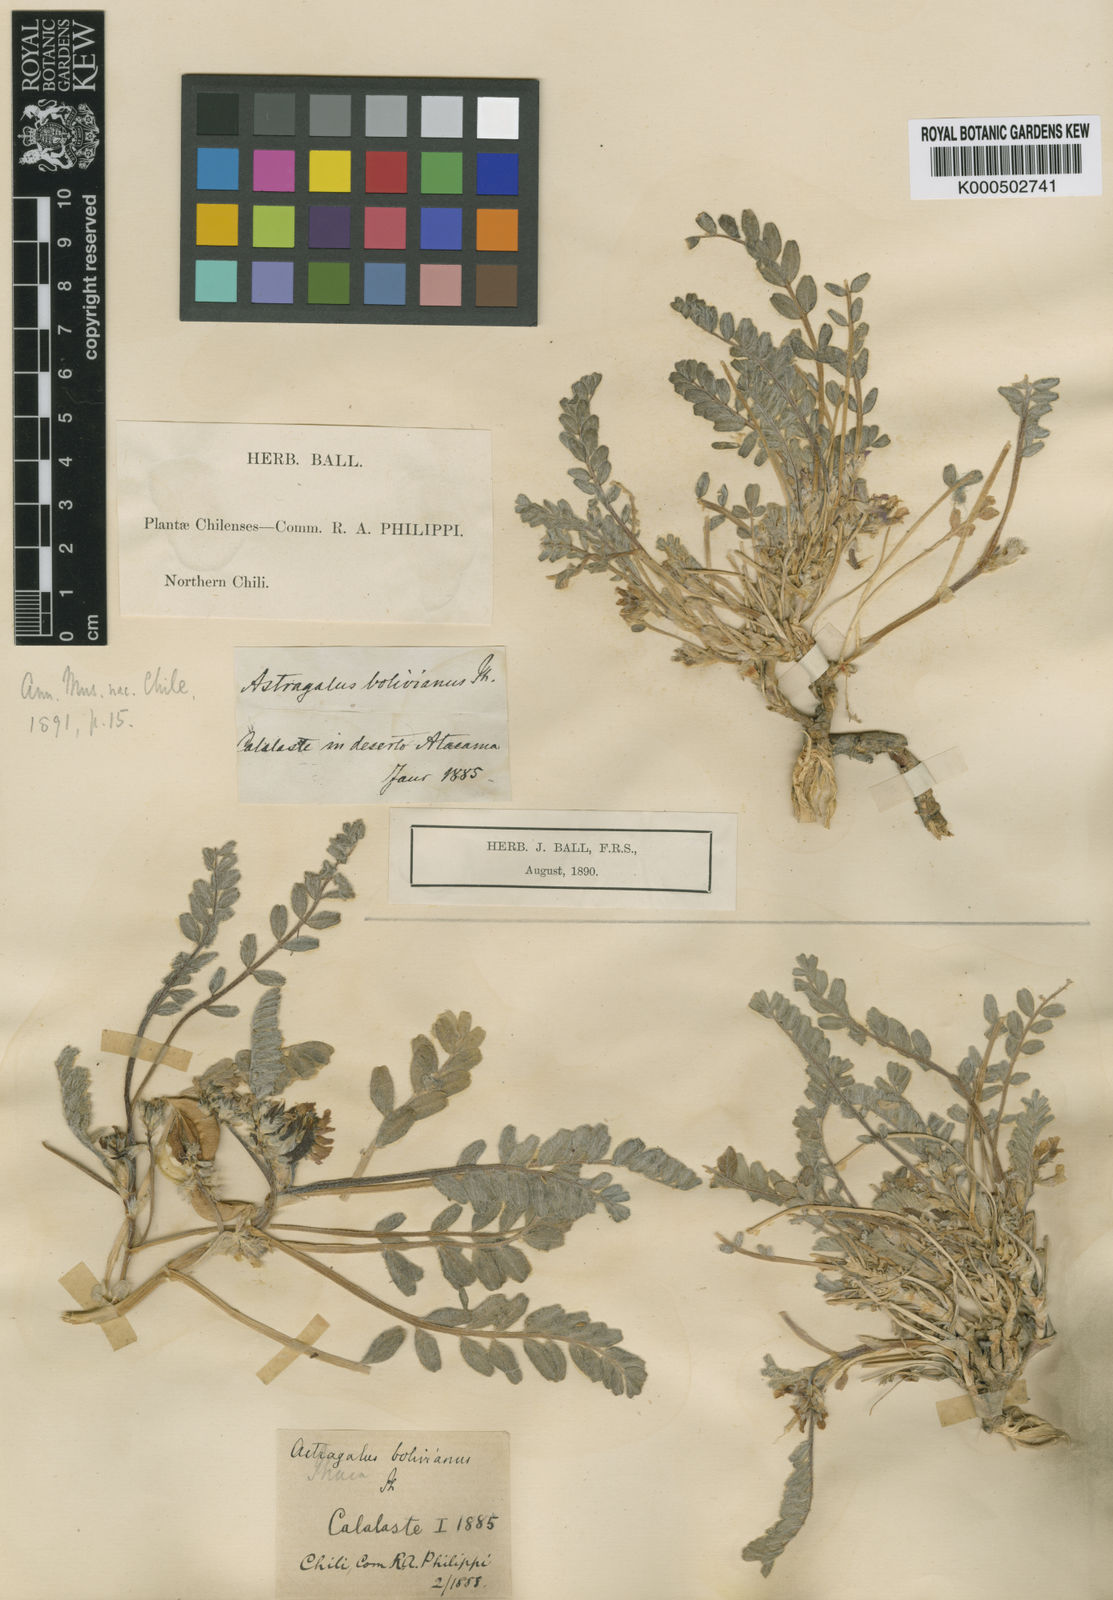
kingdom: Plantae
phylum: Tracheophyta
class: Magnoliopsida
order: Fabales
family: Fabaceae
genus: Astragalus
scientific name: Astragalus arequipensis
